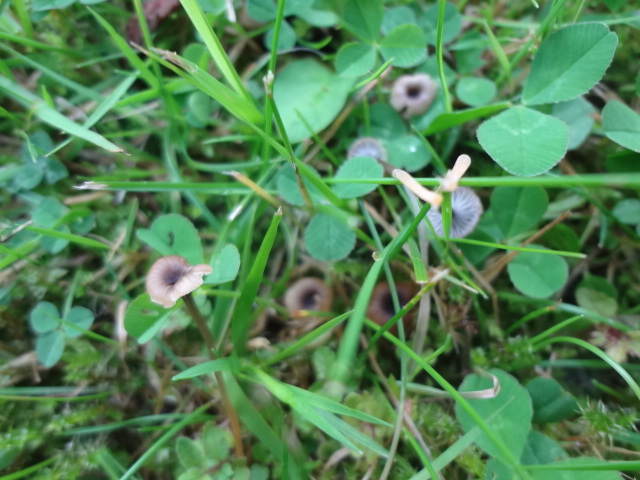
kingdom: Fungi
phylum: Basidiomycota
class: Agaricomycetes
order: Hymenochaetales
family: Rickenellaceae
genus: Rickenella
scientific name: Rickenella swartzii
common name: finstokket mosnavlehat
